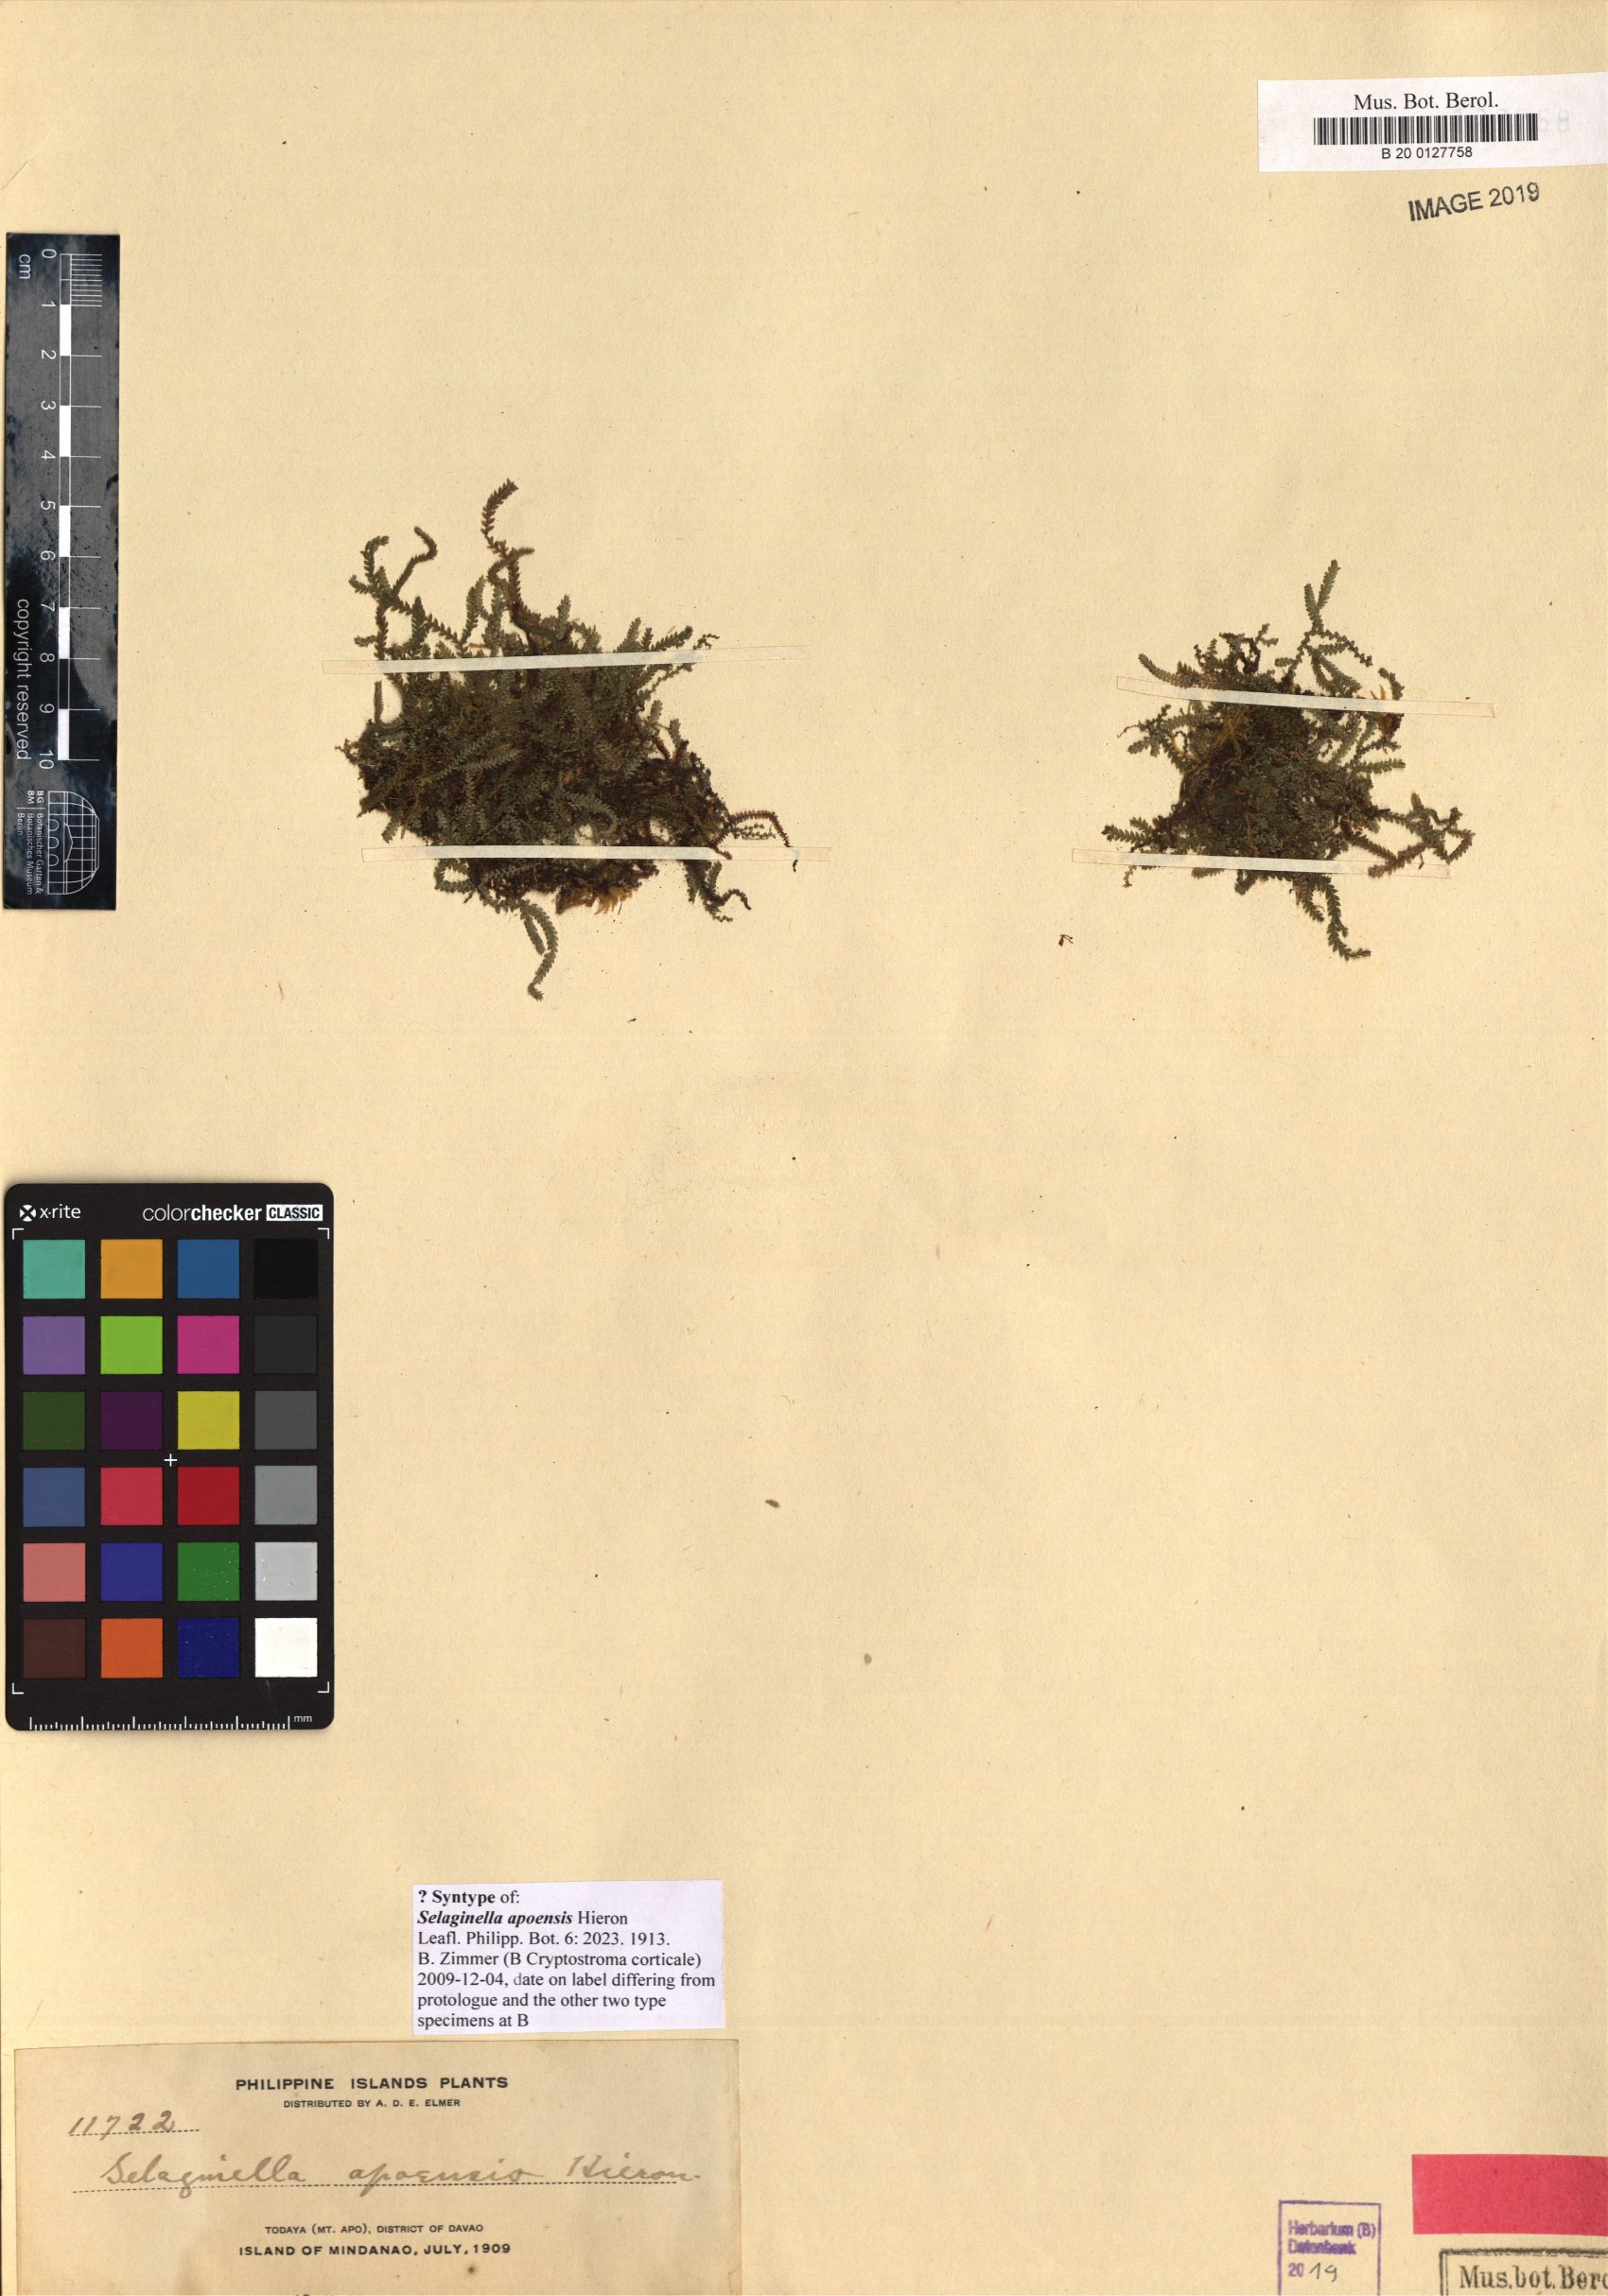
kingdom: Plantae
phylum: Tracheophyta
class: Lycopodiopsida
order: Selaginellales
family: Selaginellaceae
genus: Selaginella
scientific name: Selaginella apoensis
